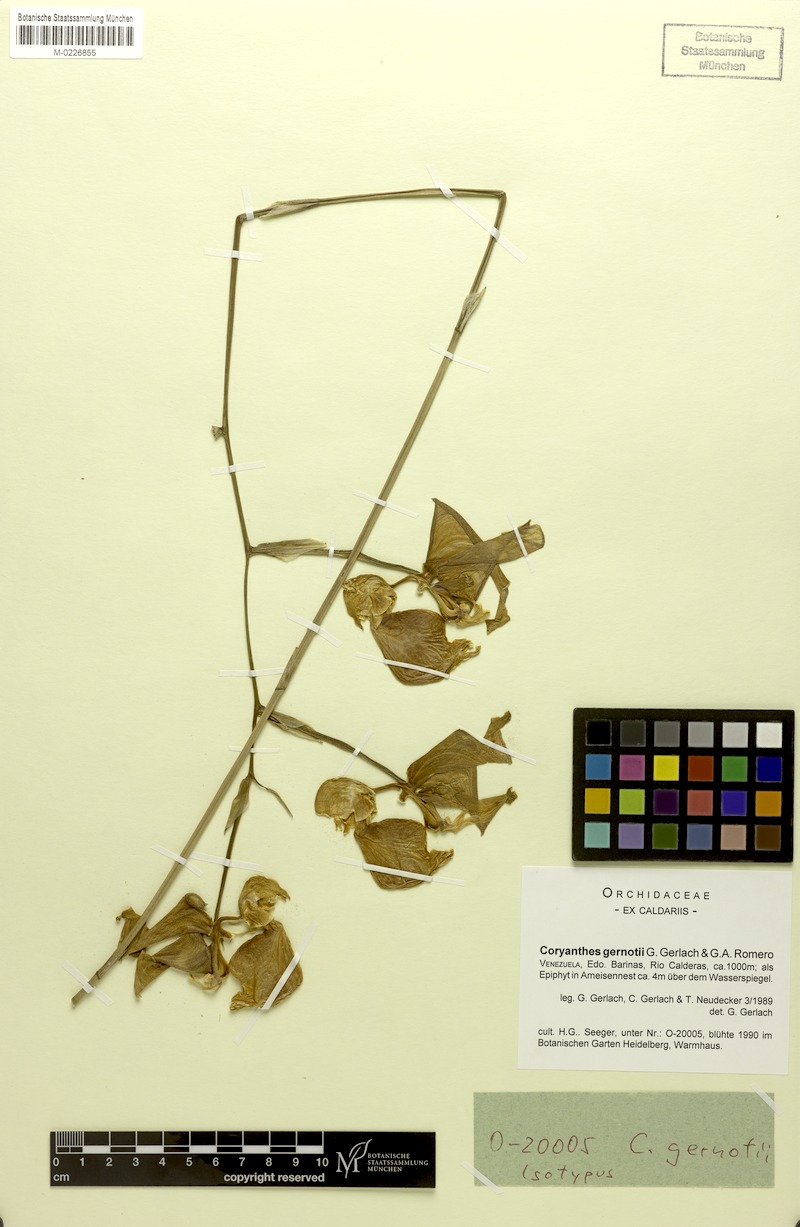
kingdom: Plantae
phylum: Tracheophyta
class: Liliopsida
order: Asparagales
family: Orchidaceae
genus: Coryanthes
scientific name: Coryanthes gernotii
